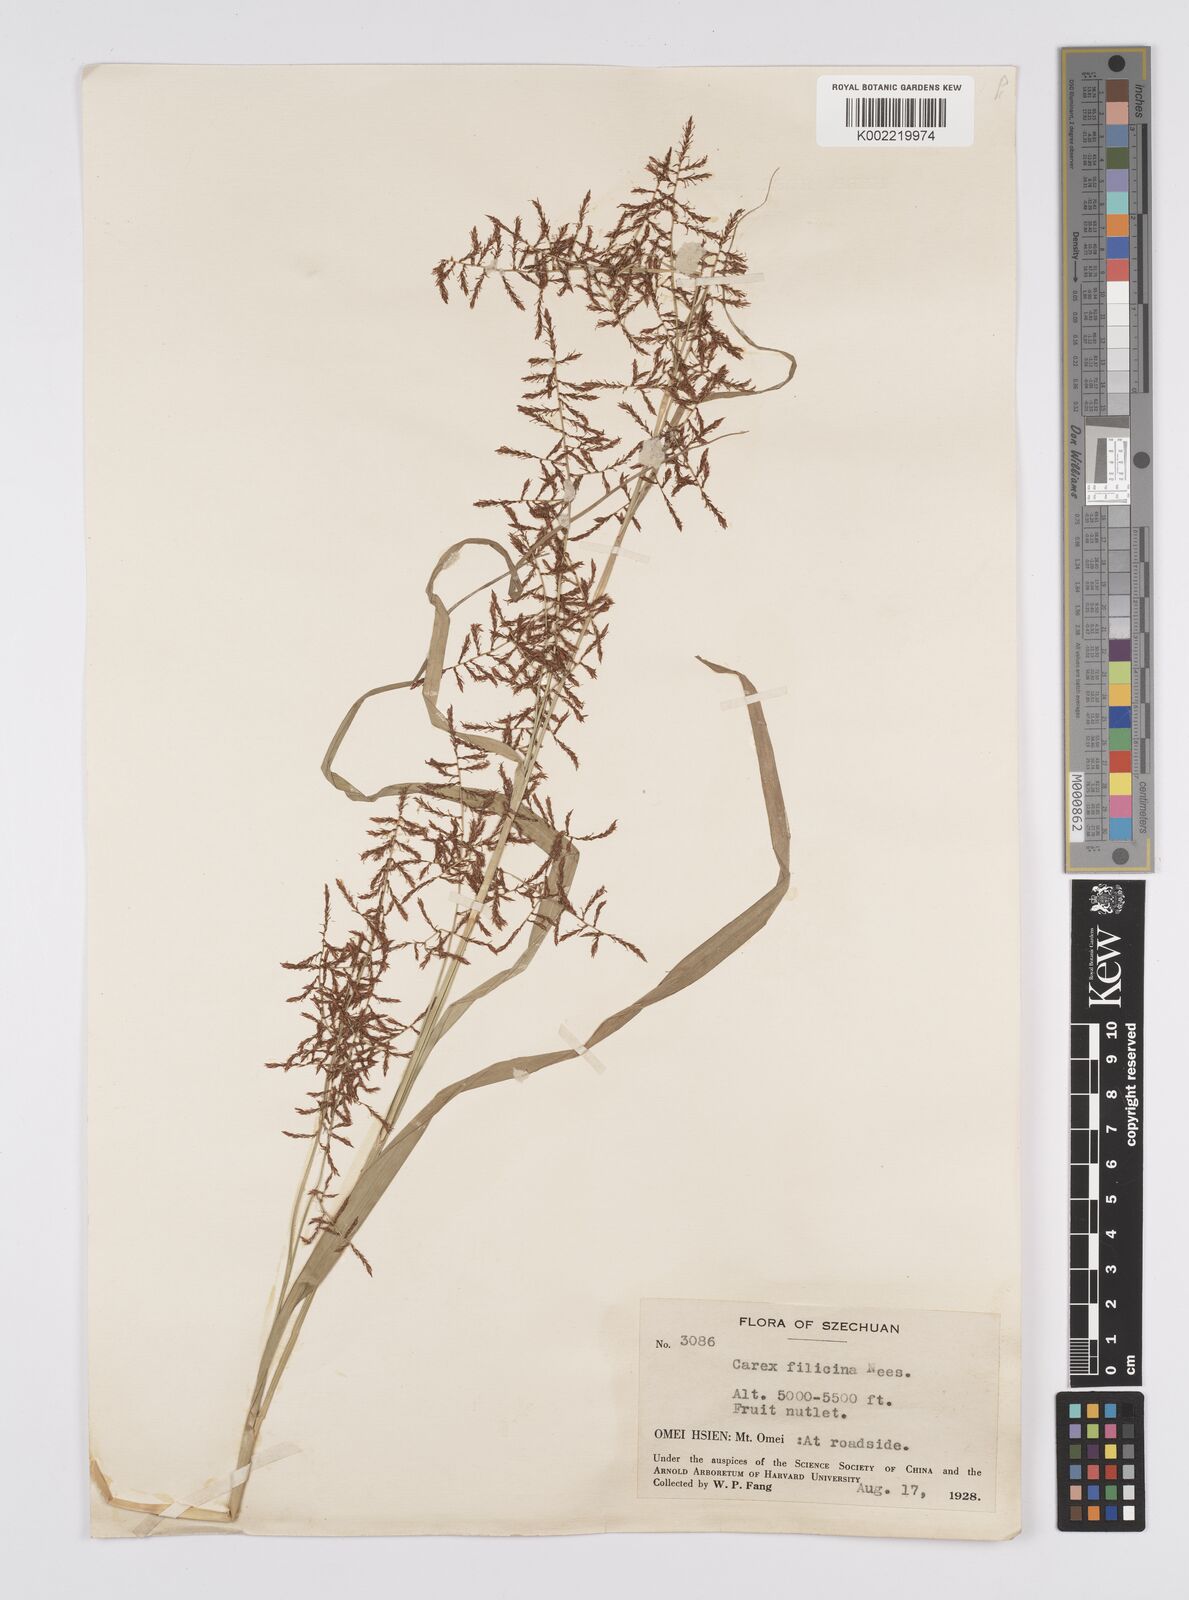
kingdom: Plantae
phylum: Tracheophyta
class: Liliopsida
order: Poales
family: Cyperaceae
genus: Carex
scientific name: Carex filicina
